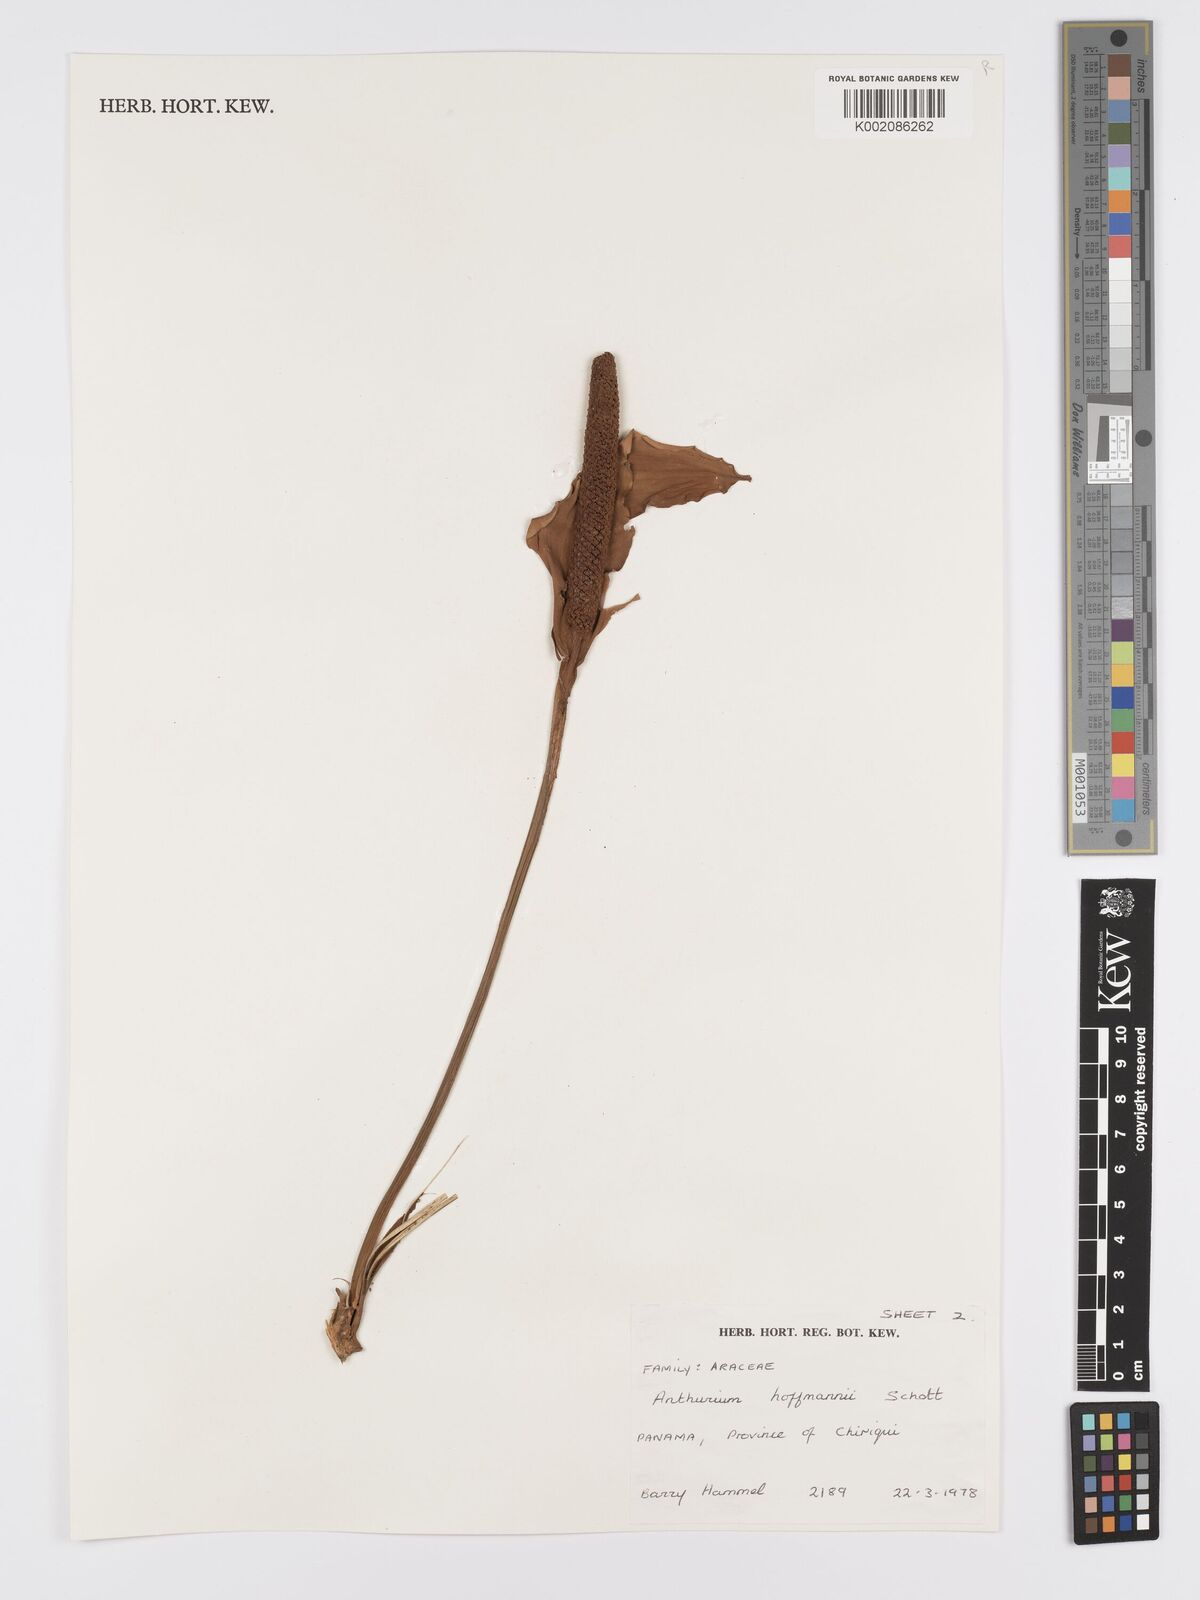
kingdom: Plantae
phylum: Tracheophyta
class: Liliopsida
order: Alismatales
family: Araceae
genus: Anthurium
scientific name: Anthurium hoffmannii
